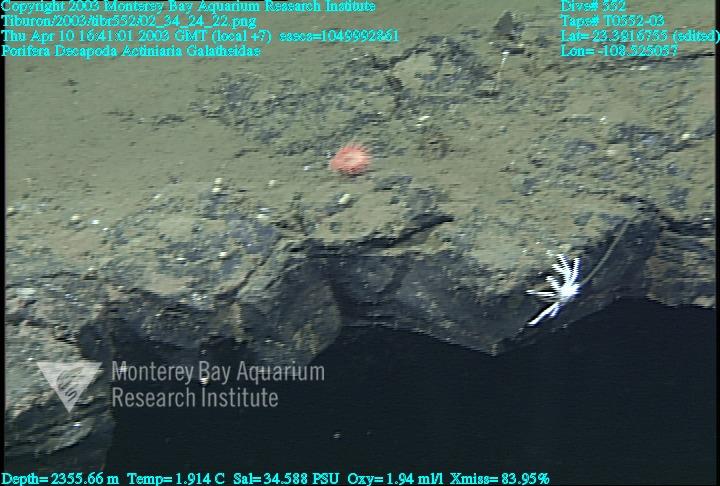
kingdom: Animalia
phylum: Porifera
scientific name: Porifera
